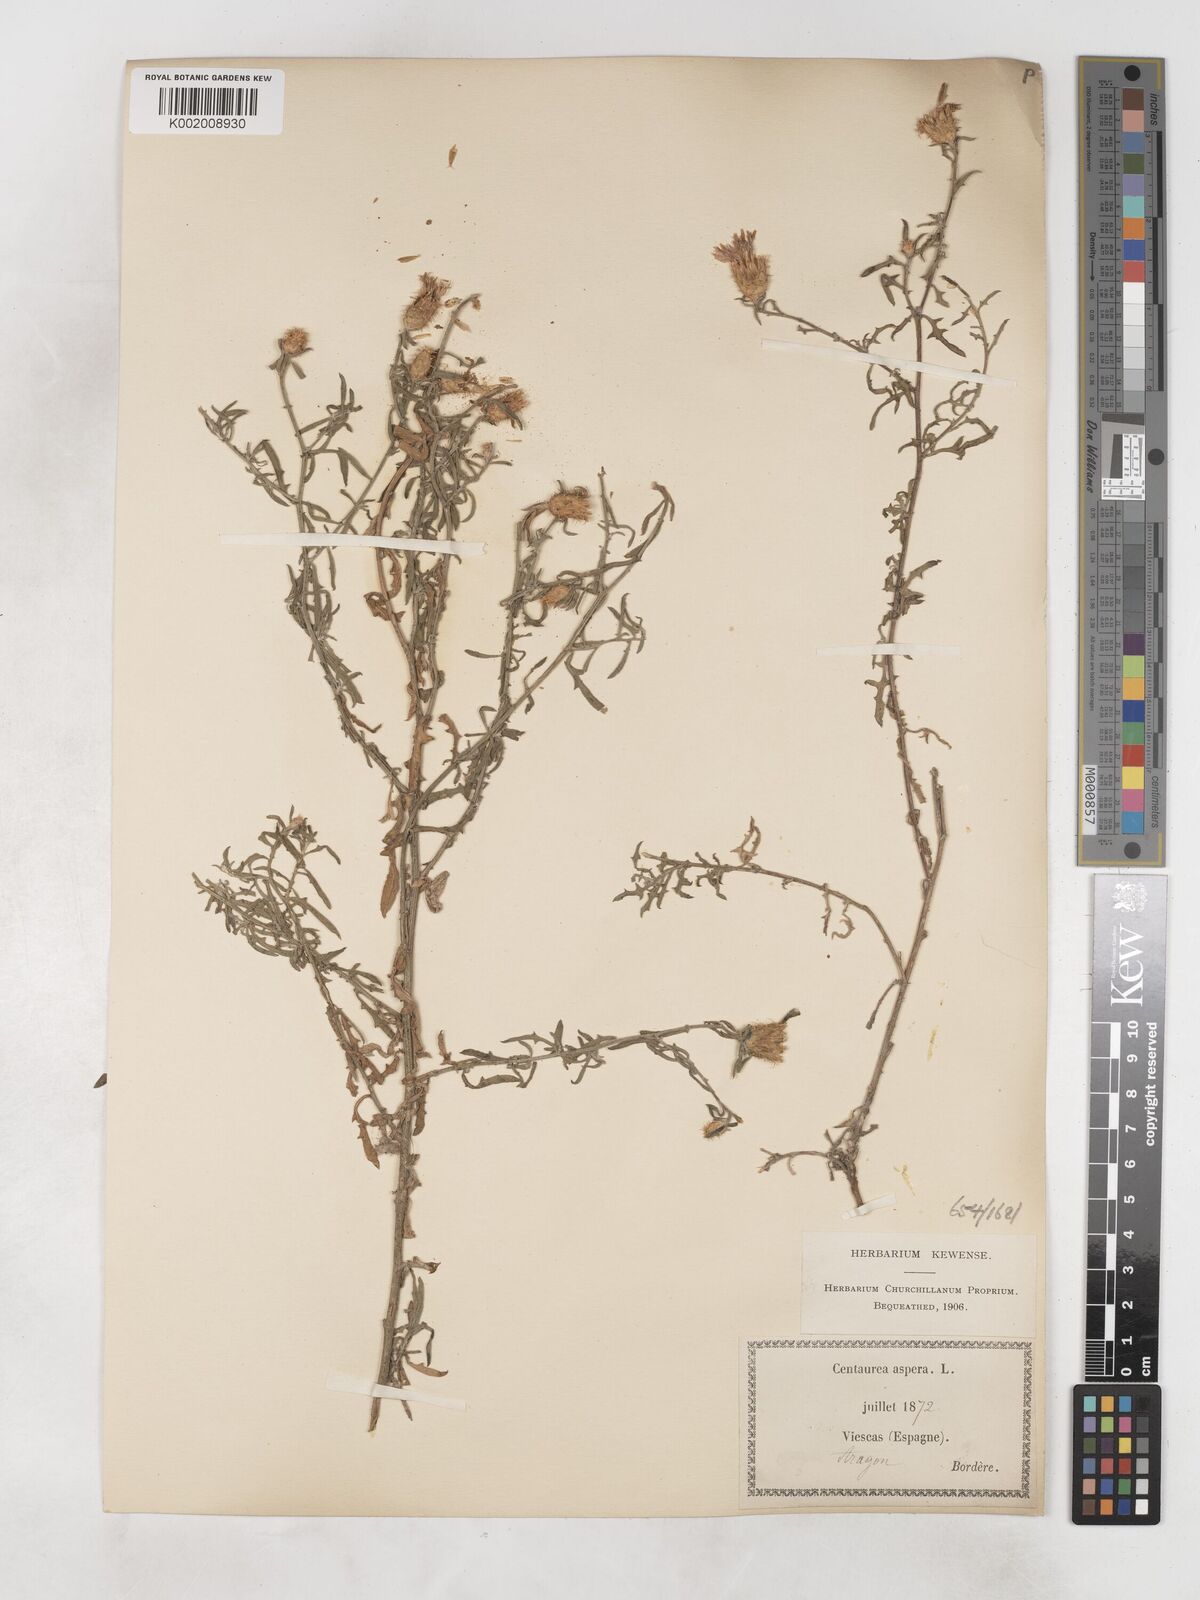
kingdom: Plantae
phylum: Tracheophyta
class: Magnoliopsida
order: Asterales
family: Asteraceae
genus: Centaurea
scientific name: Centaurea aspera
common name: Rough star-thistle
